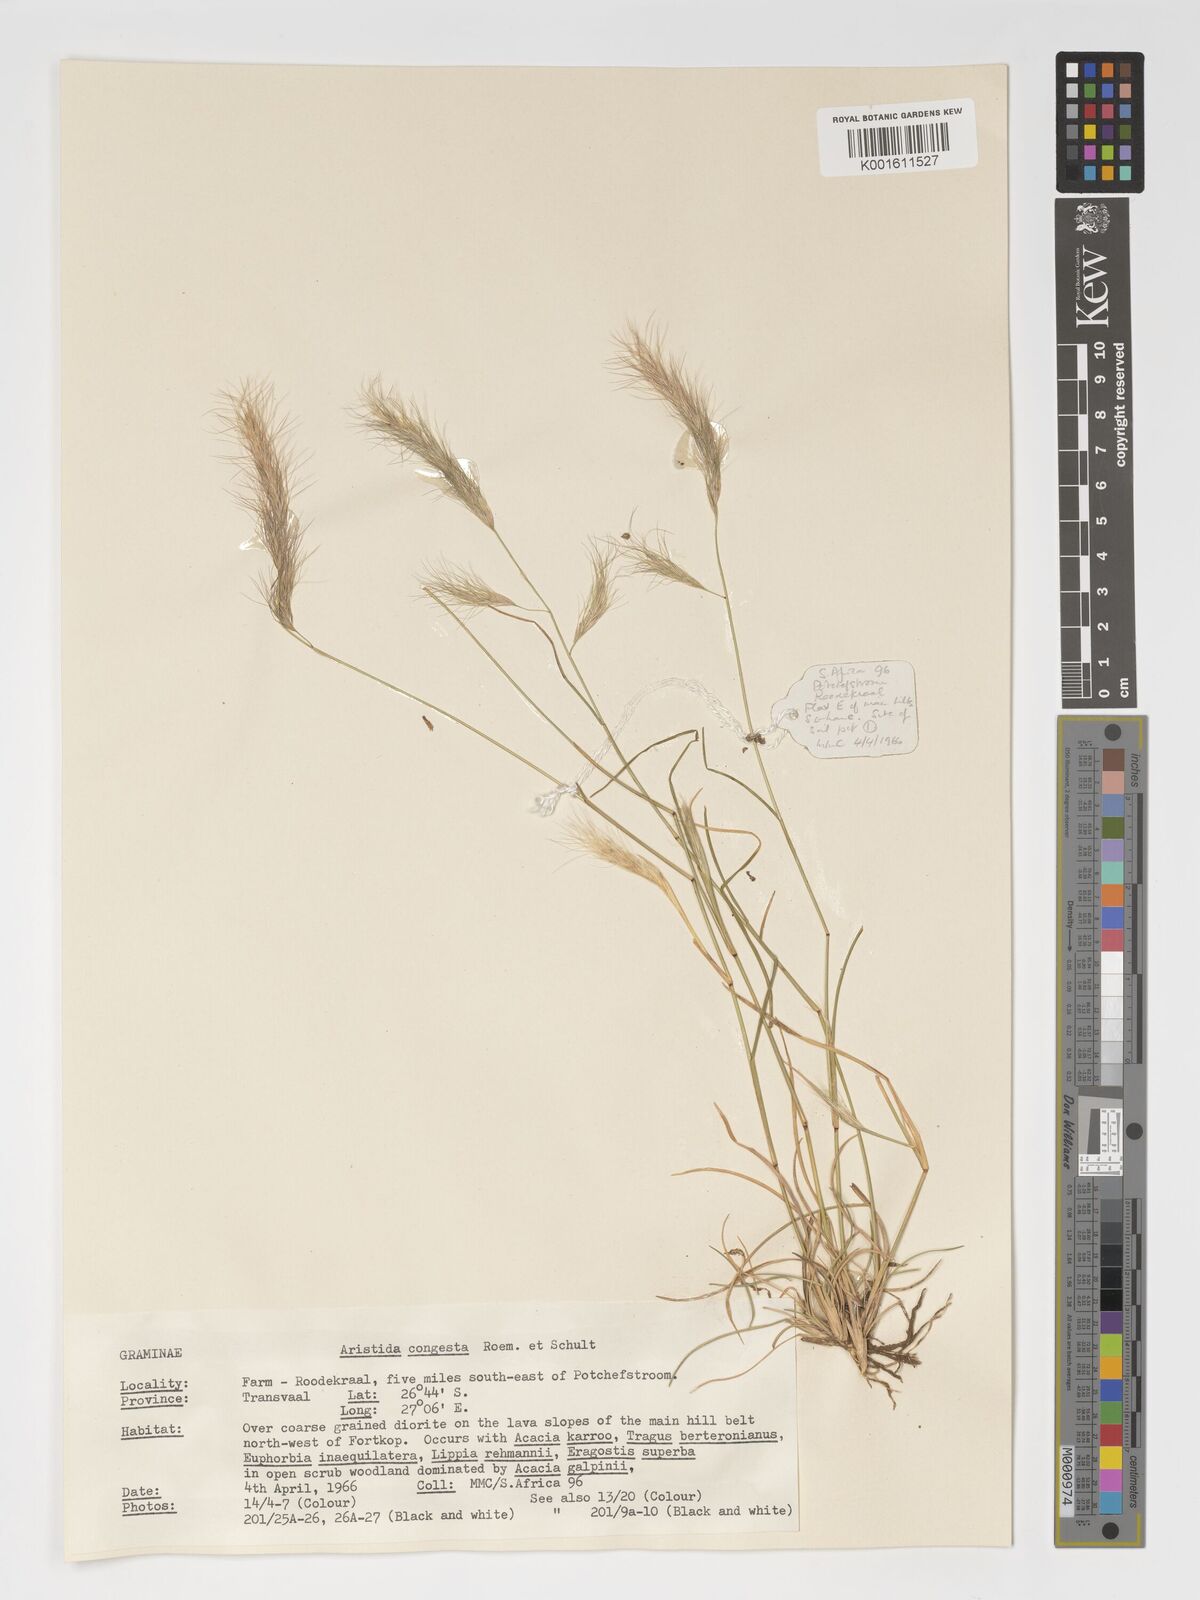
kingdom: Plantae
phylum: Tracheophyta
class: Liliopsida
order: Poales
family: Poaceae
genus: Aristida
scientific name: Aristida congesta
